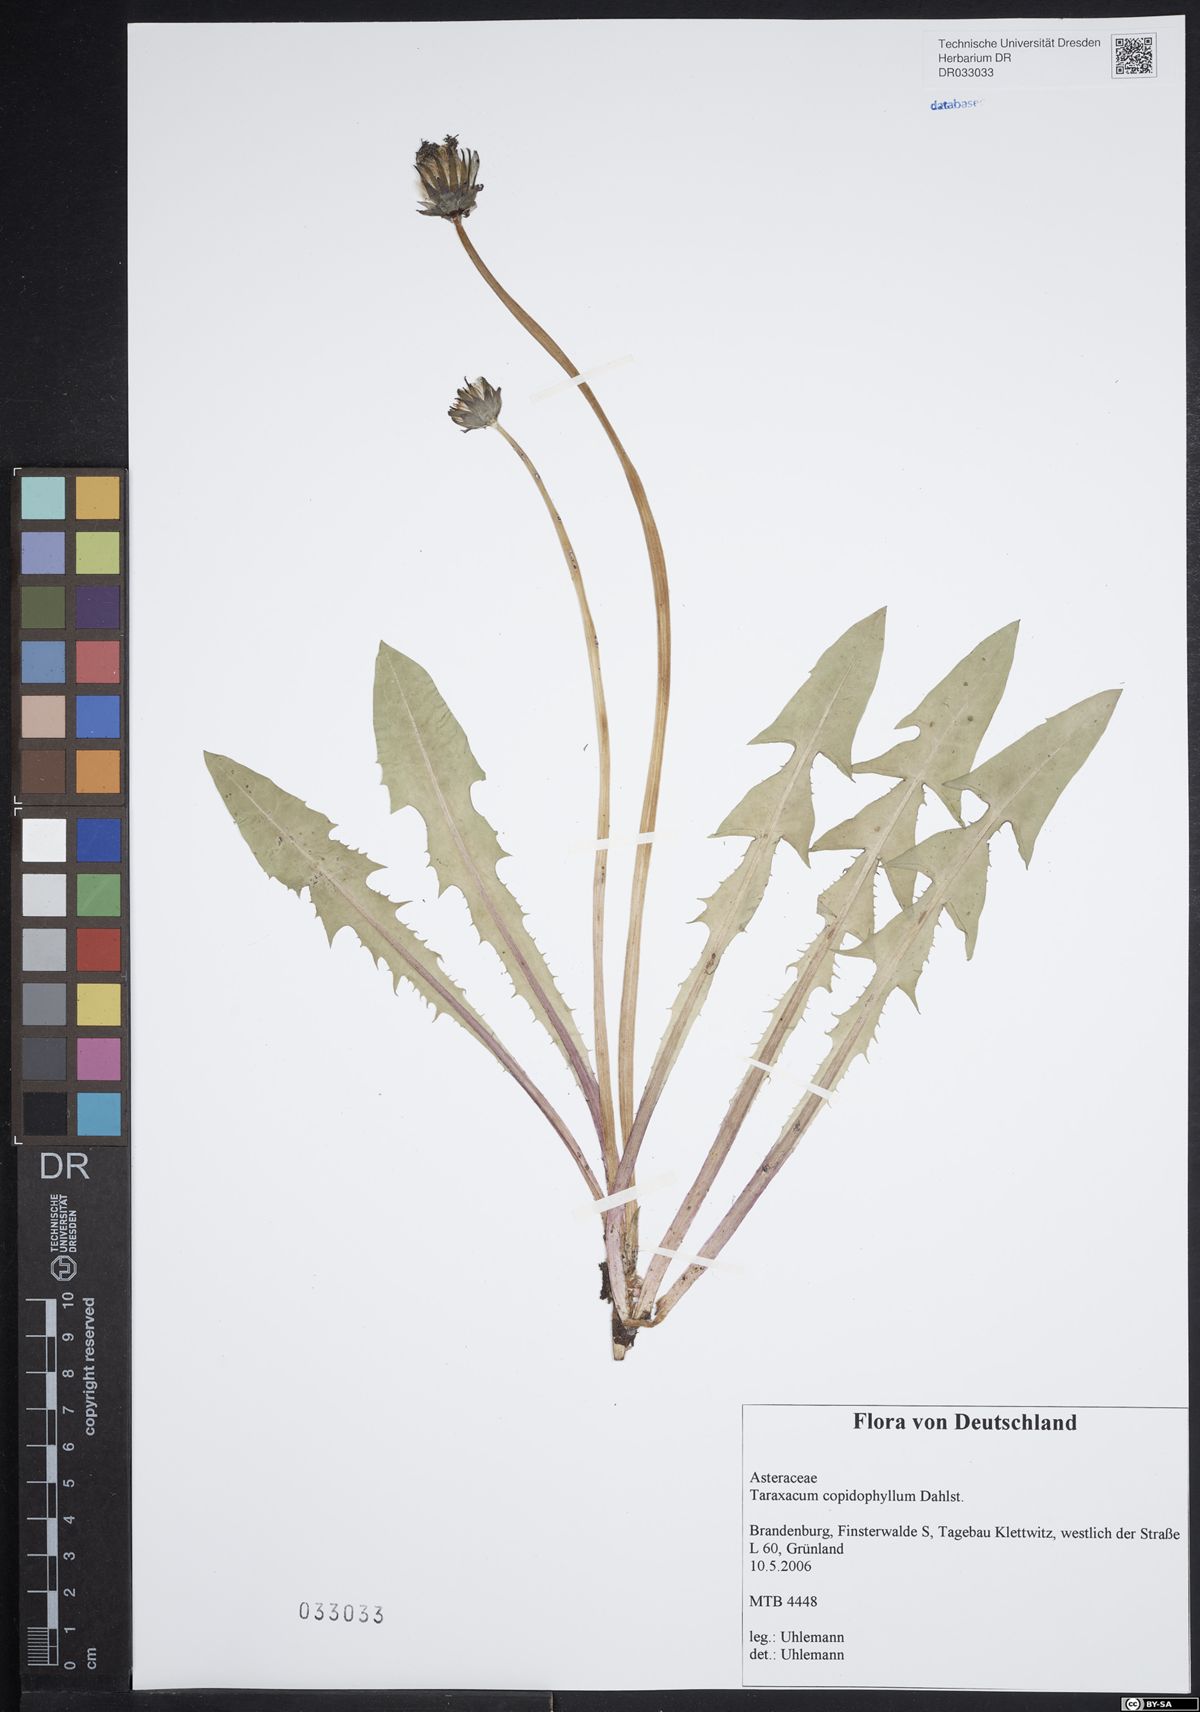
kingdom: Plantae
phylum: Tracheophyta
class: Magnoliopsida
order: Asterales
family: Asteraceae
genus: Taraxacum
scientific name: Taraxacum copidophyllum
